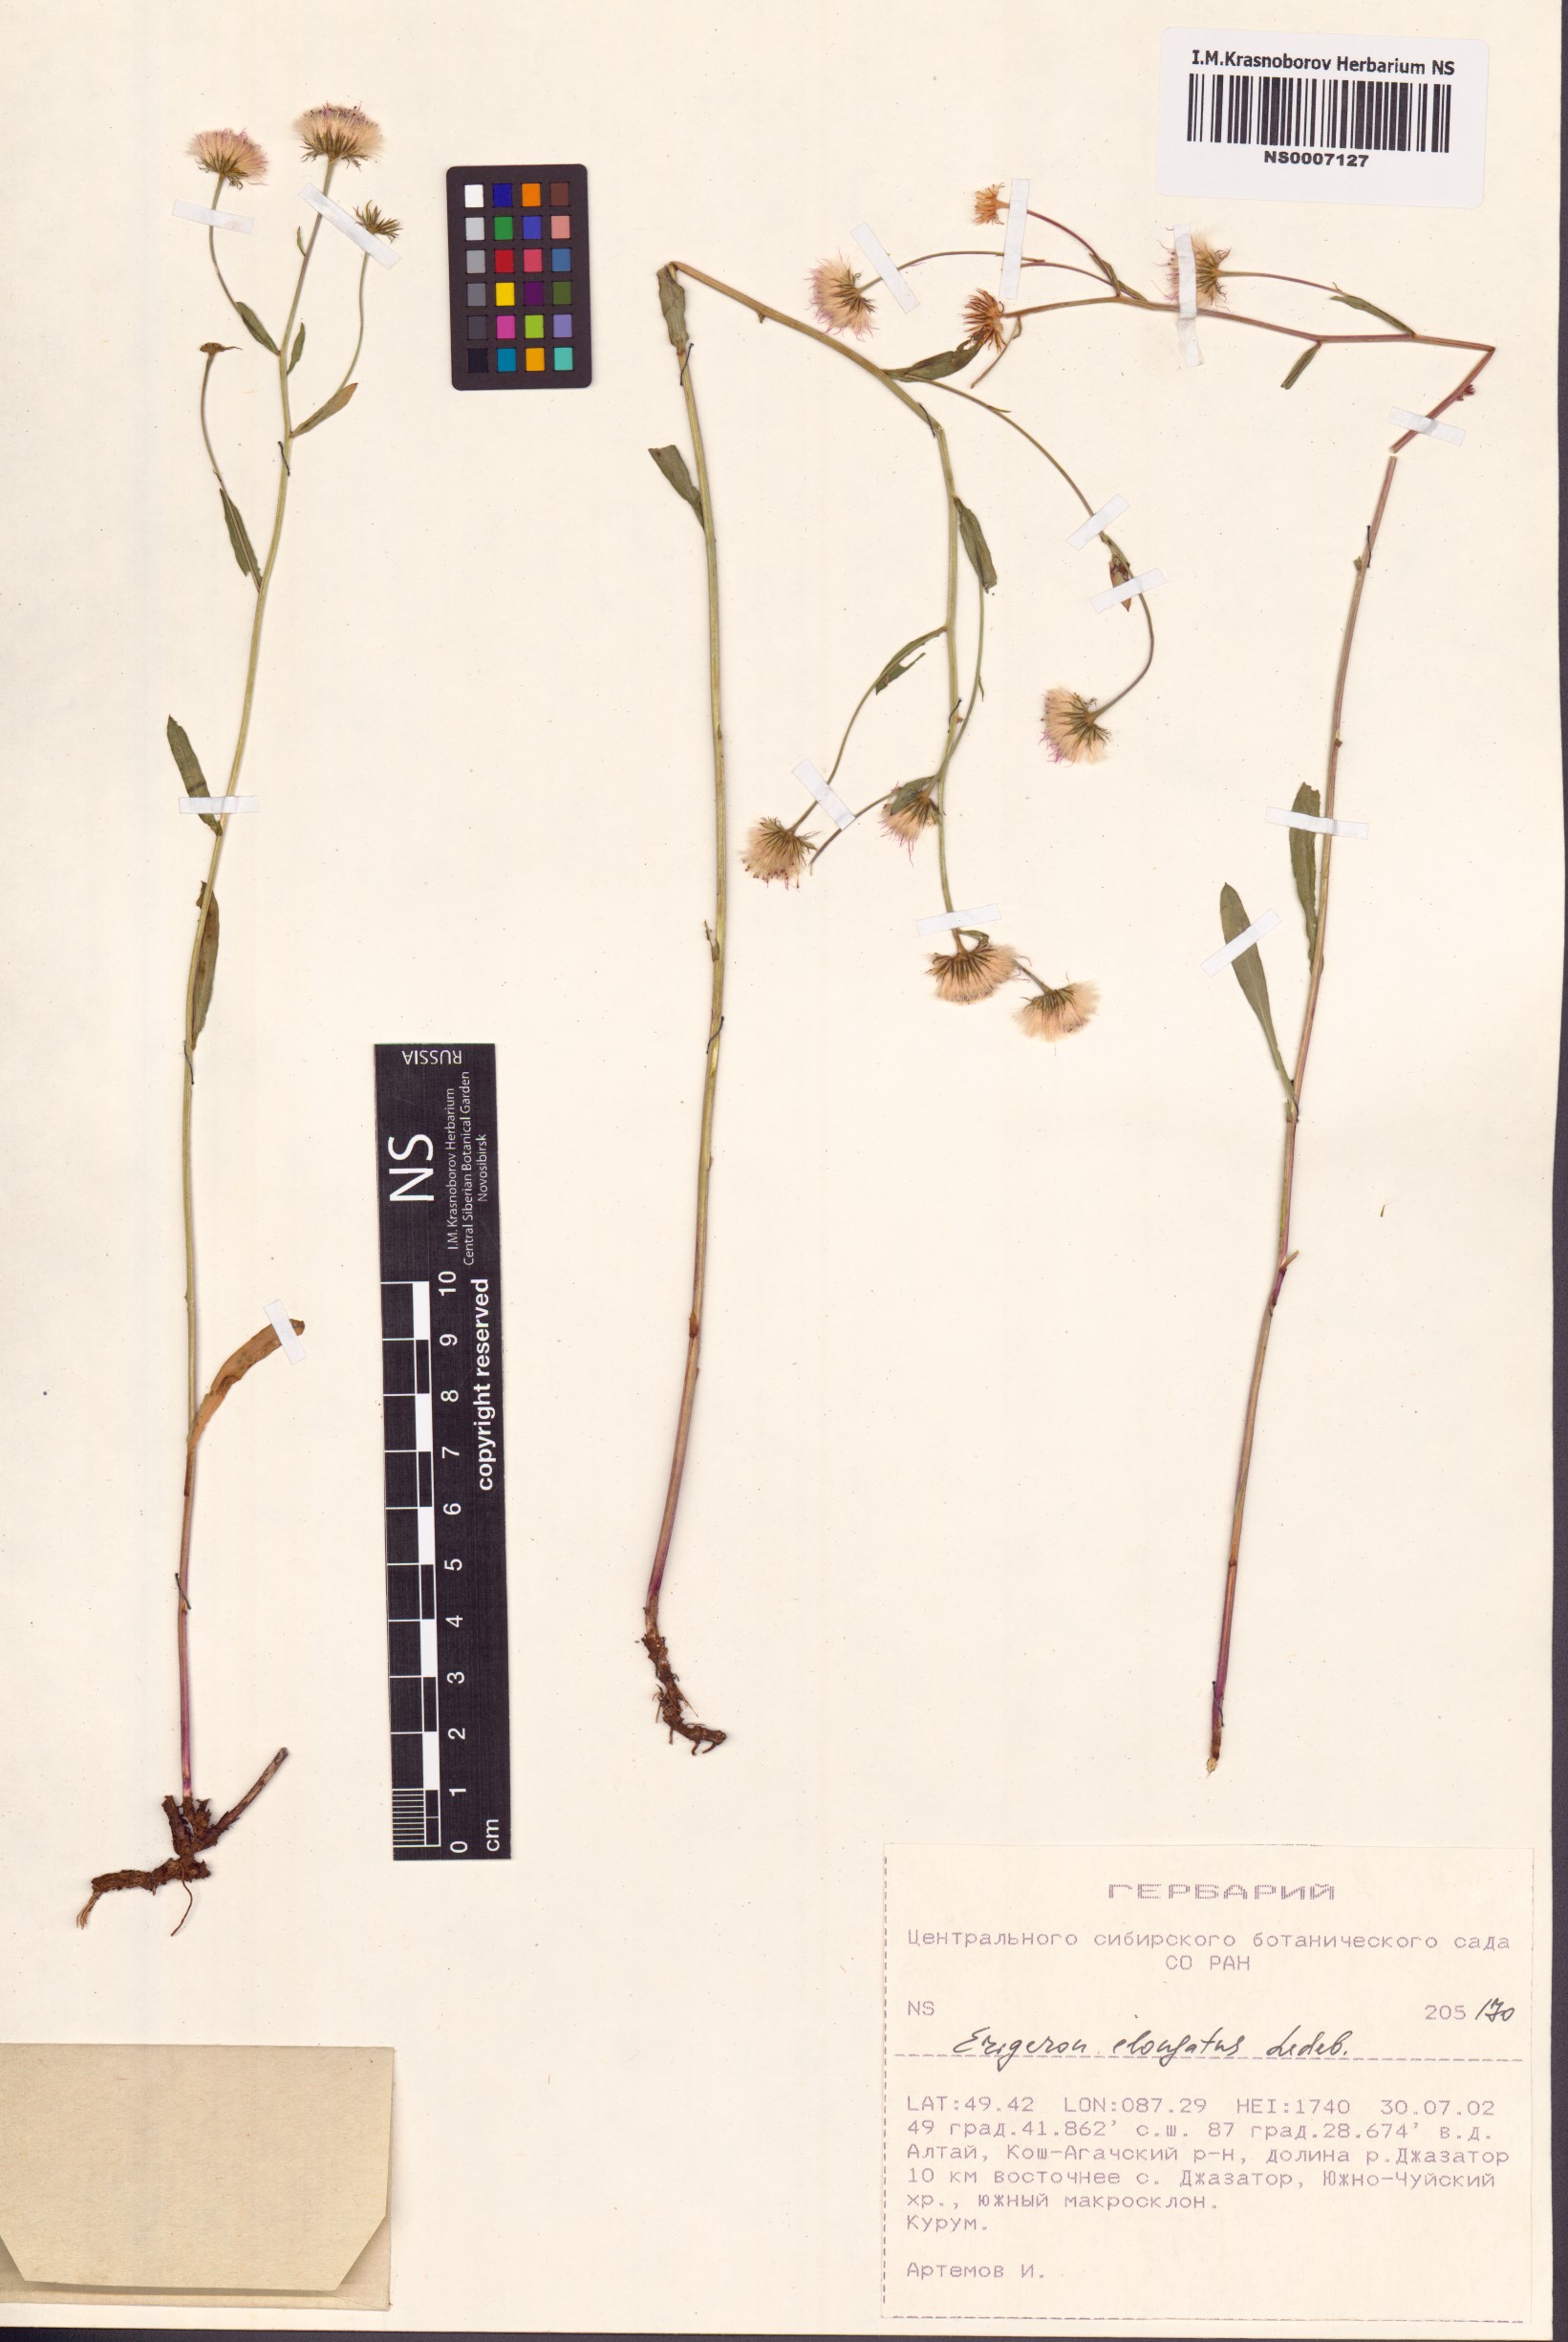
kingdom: Plantae
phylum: Tracheophyta
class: Magnoliopsida
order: Asterales
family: Asteraceae
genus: Erigeron
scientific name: Erigeron politus
